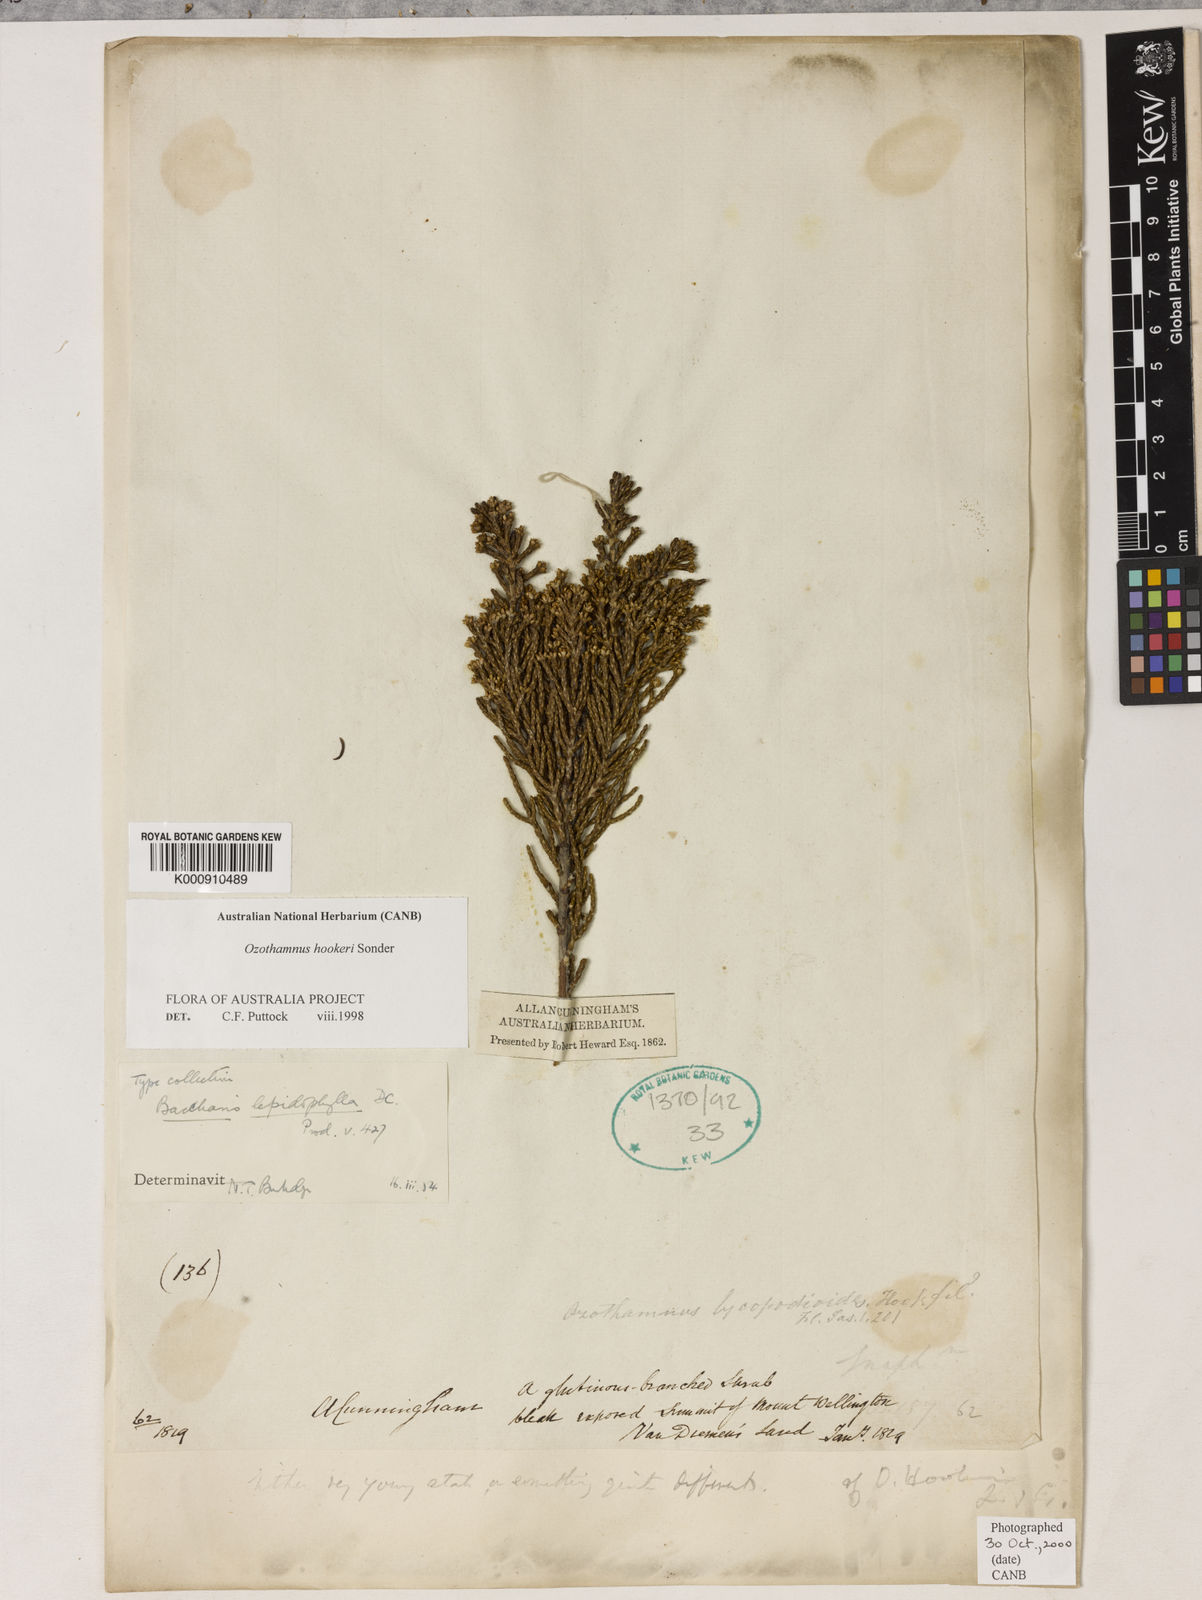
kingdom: Plantae
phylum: Tracheophyta
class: Magnoliopsida
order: Asterales
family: Asteraceae
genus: Ozothamnus
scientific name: Ozothamnus hookeri
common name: Kerosene-bush
